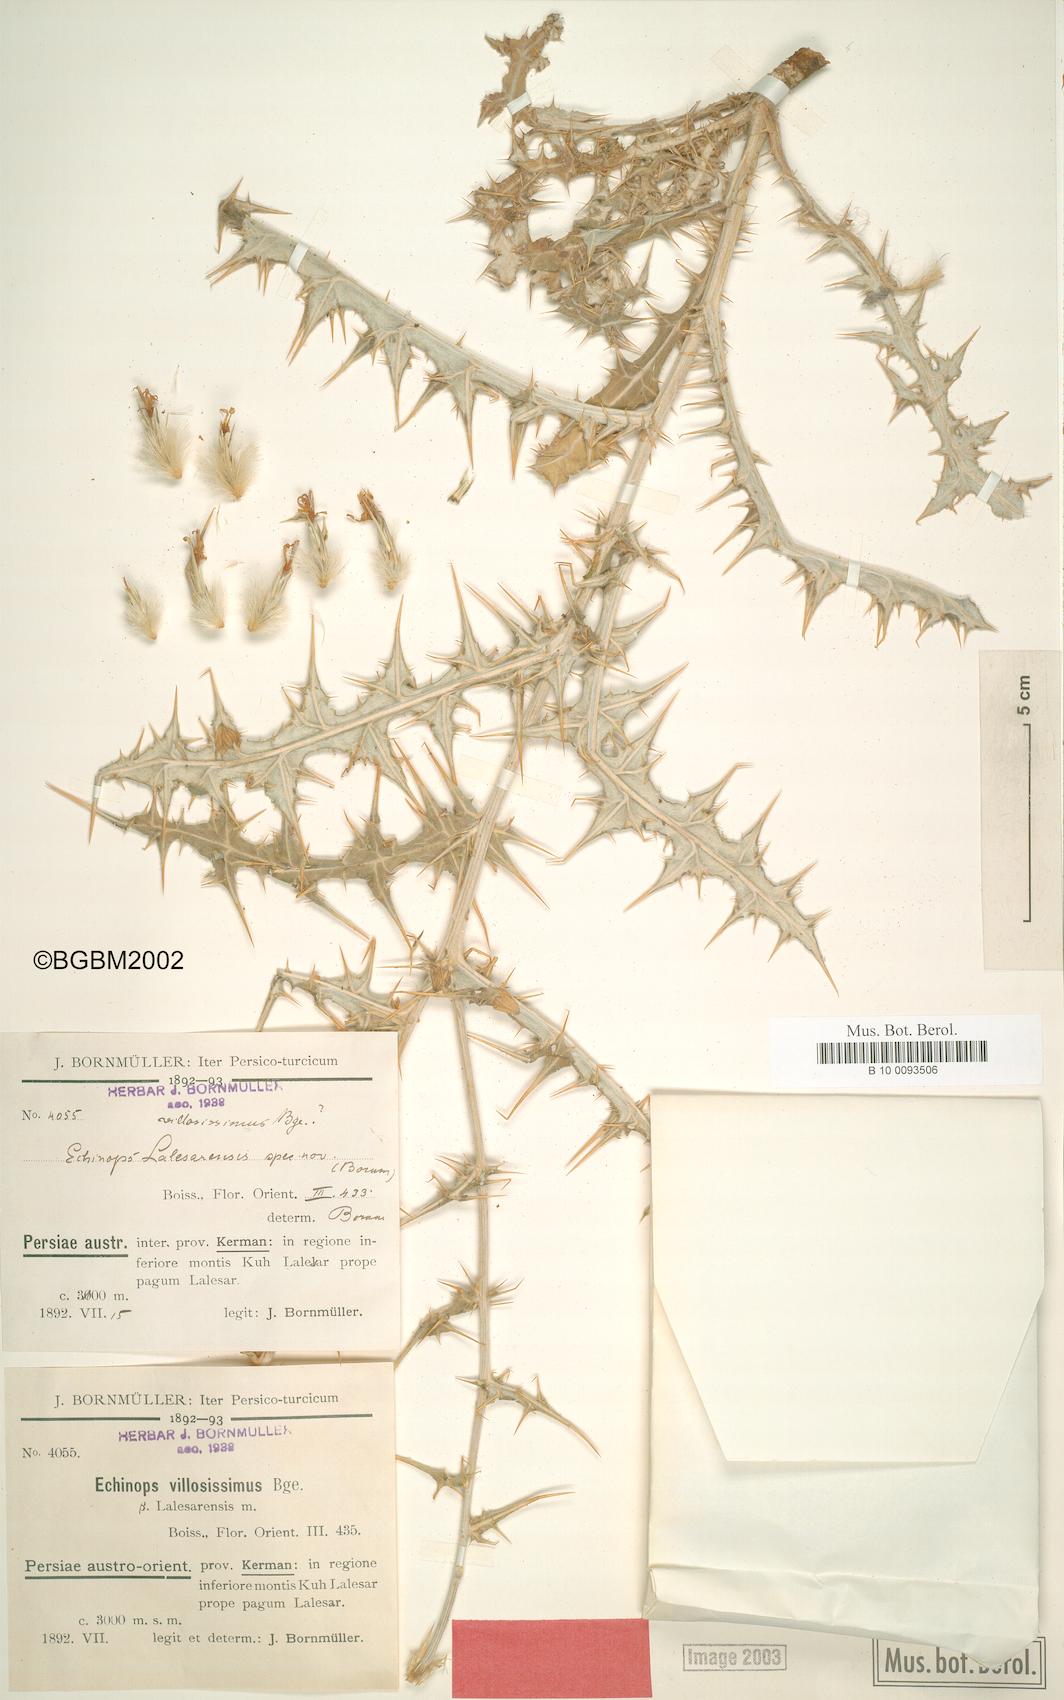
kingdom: Plantae
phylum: Tracheophyta
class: Magnoliopsida
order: Asterales
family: Asteraceae
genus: Echinops
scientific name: Echinops lalesarensis
